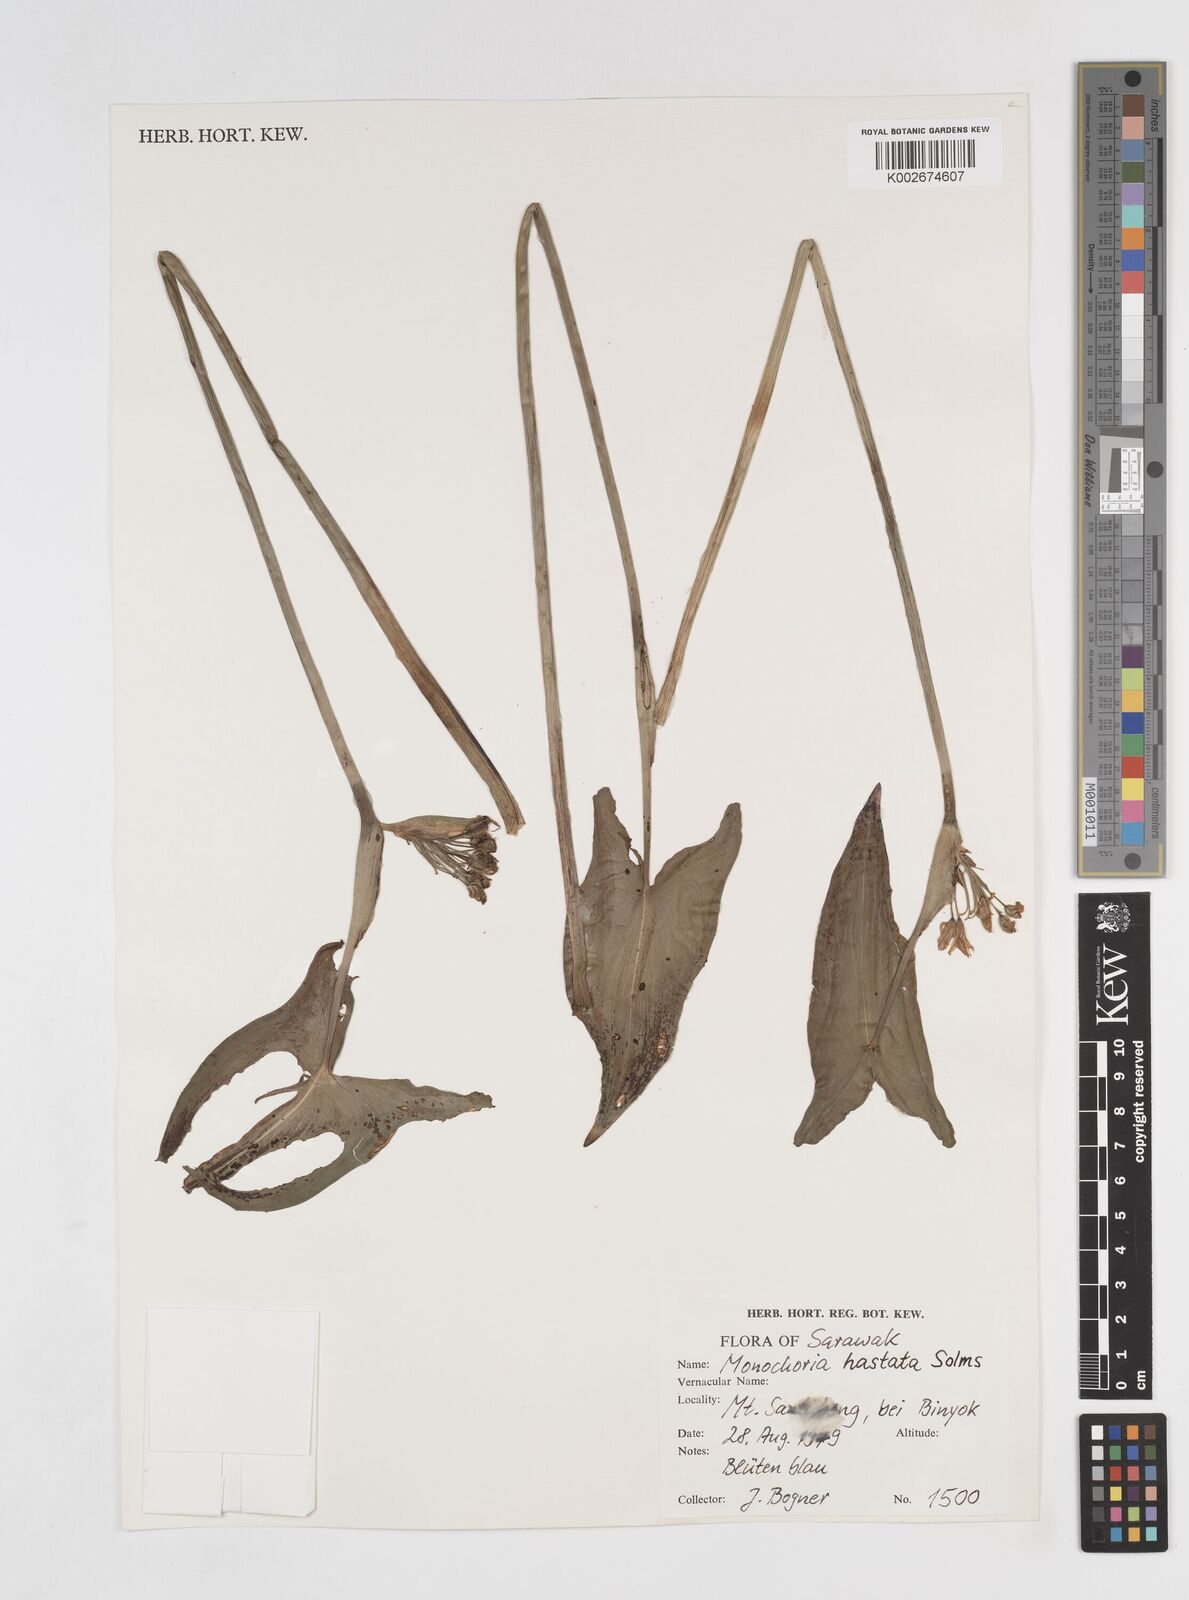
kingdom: Plantae
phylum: Tracheophyta
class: Liliopsida
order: Commelinales
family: Pontederiaceae
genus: Pontederia
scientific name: Pontederia hastata
